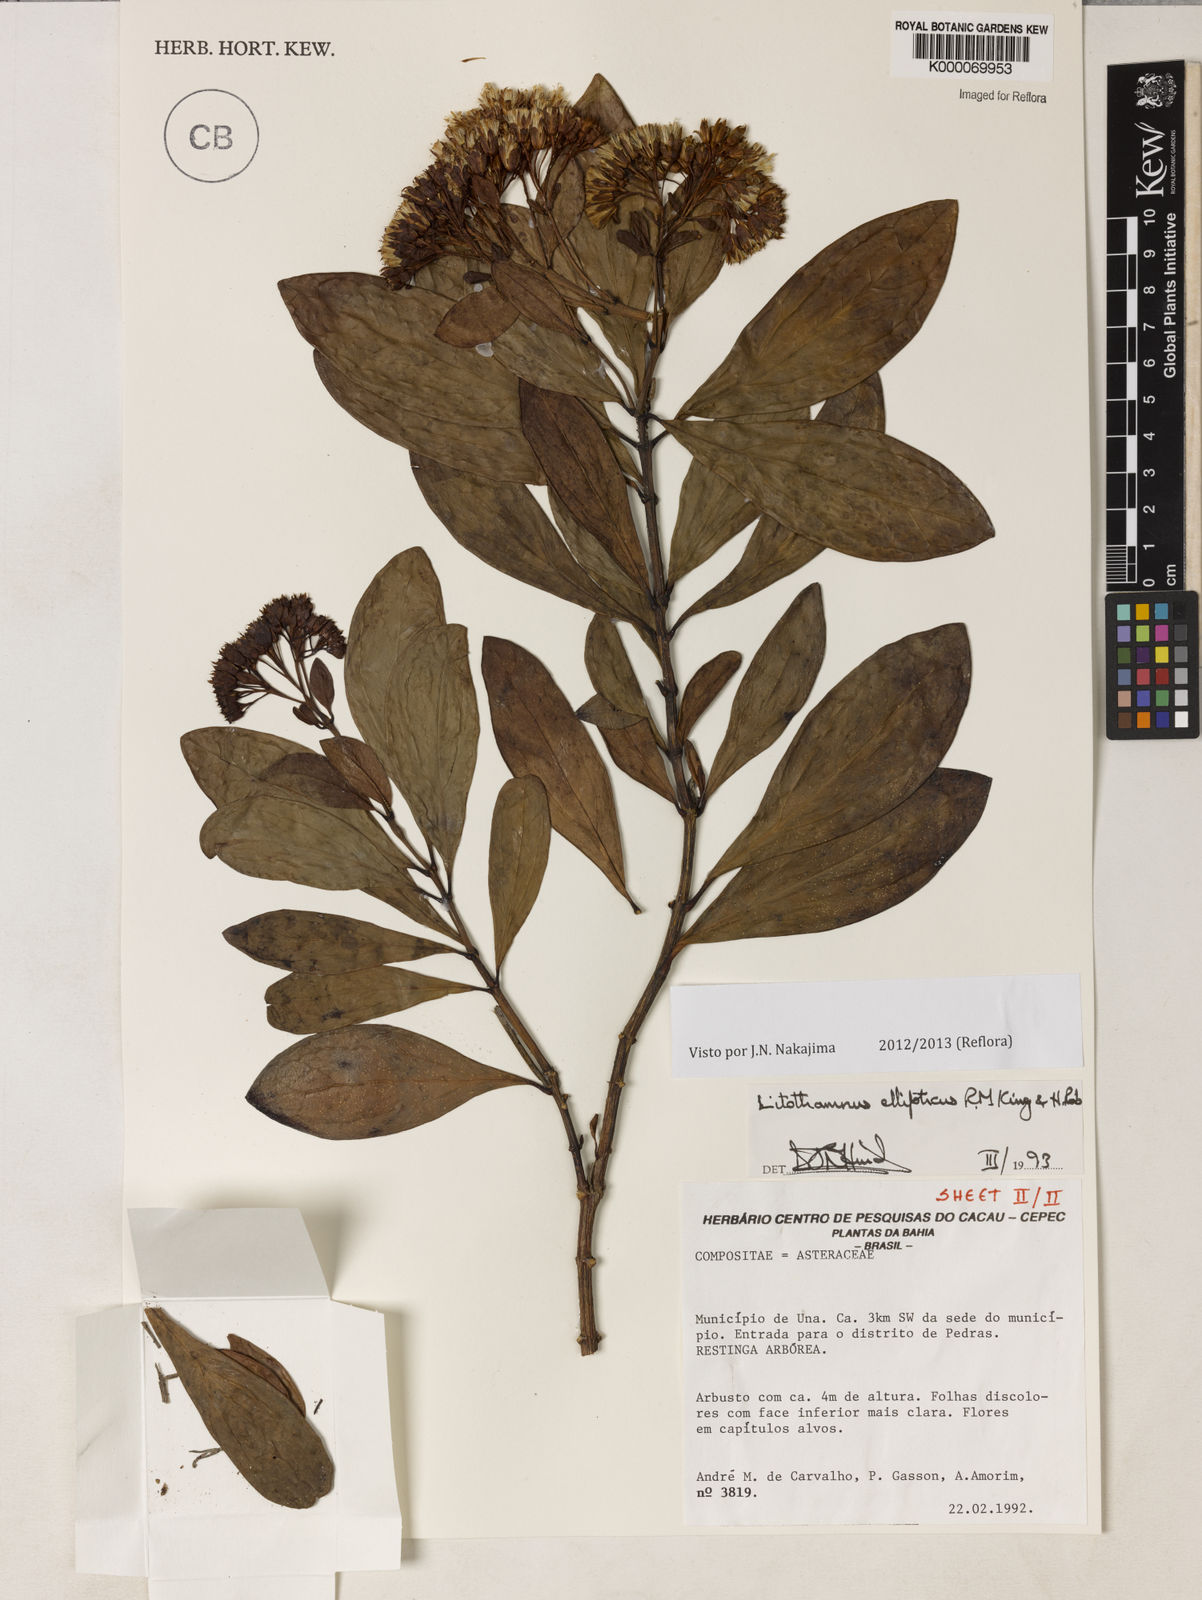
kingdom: Plantae
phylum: Tracheophyta
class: Magnoliopsida
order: Asterales
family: Asteraceae
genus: Litothamnus
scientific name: Litothamnus ellipticus
